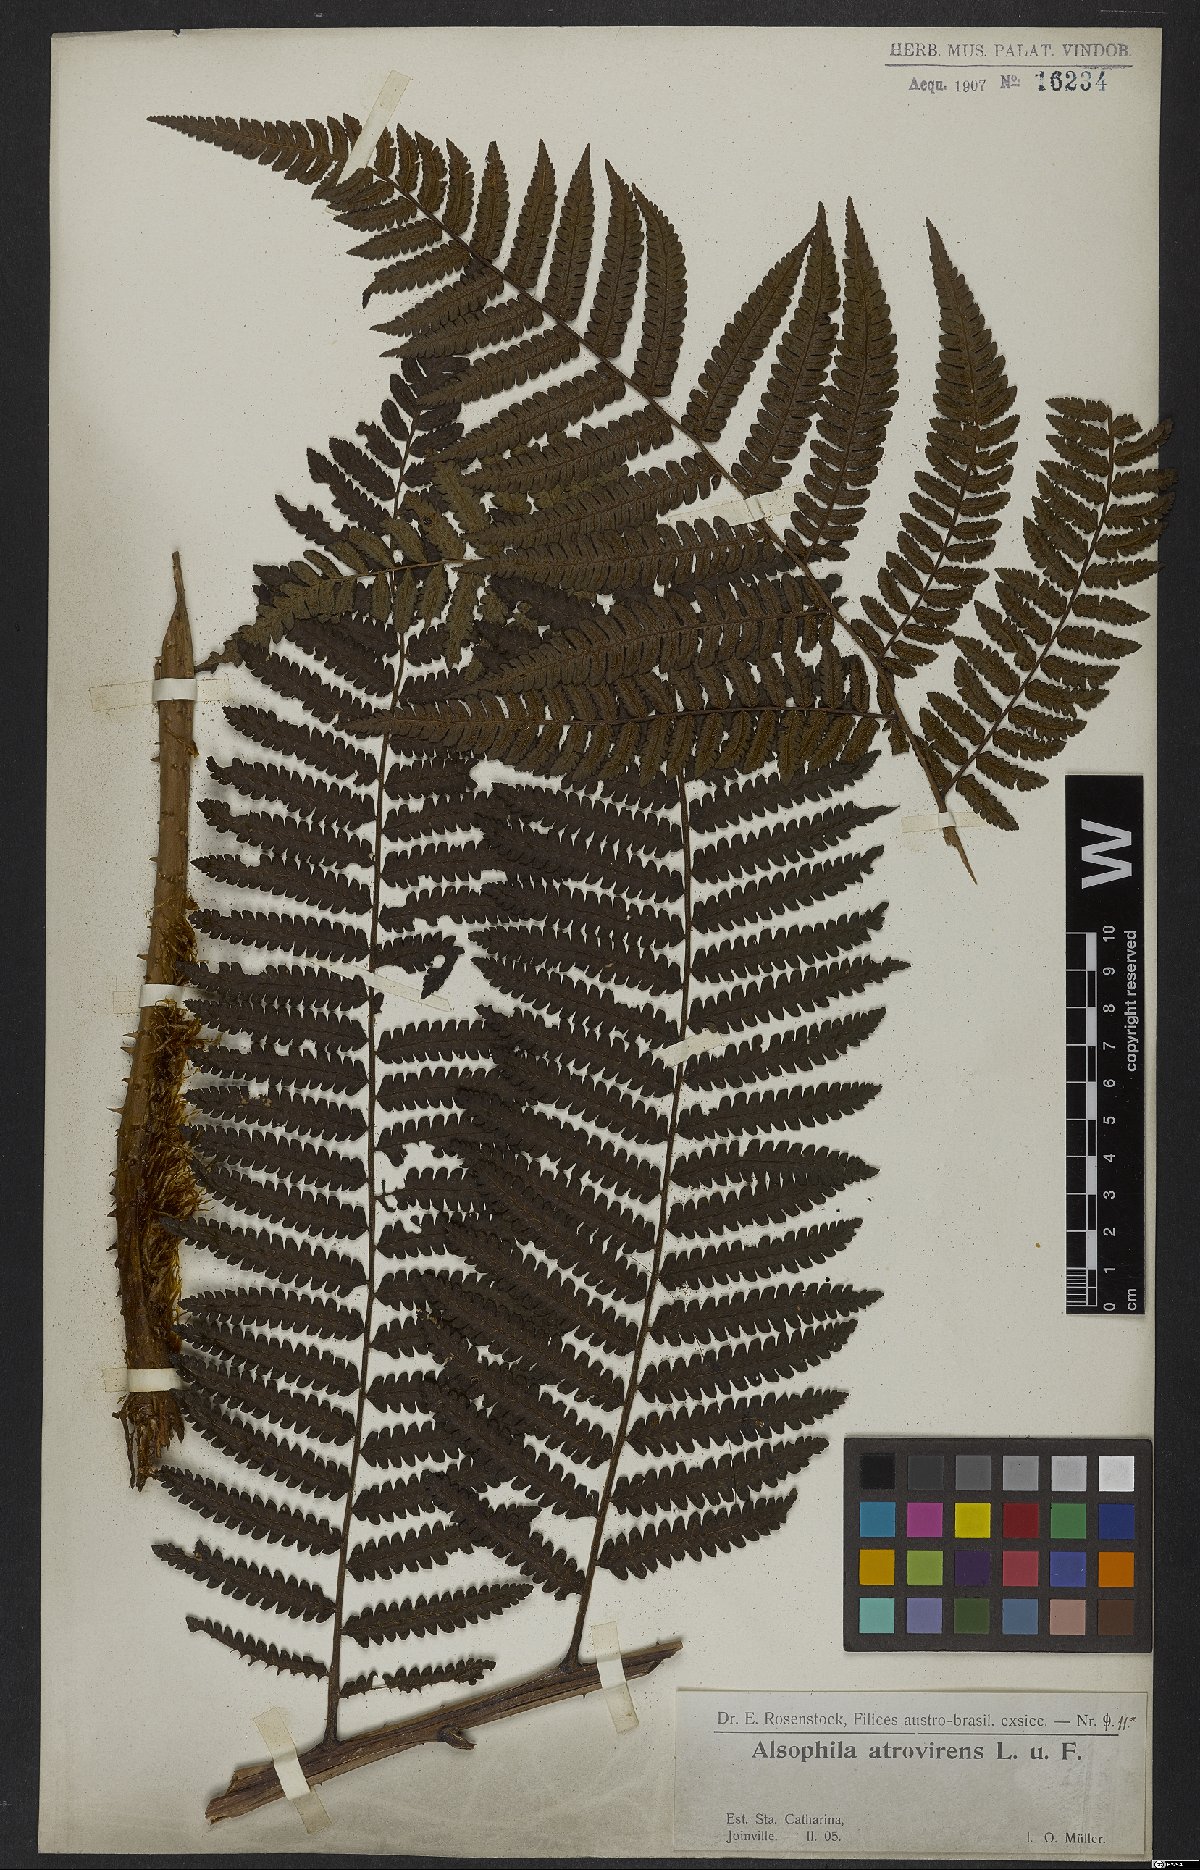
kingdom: Plantae
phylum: Tracheophyta
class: Polypodiopsida
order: Cyatheales
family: Cyatheaceae
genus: Cyathea
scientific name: Cyathea atrovirens
